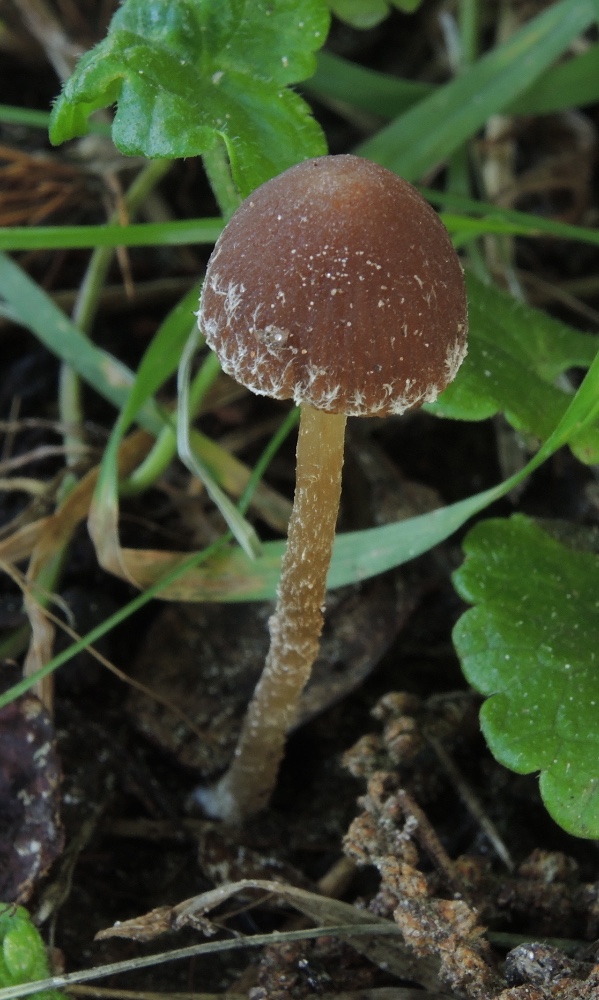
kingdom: Fungi
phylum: Basidiomycota
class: Agaricomycetes
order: Agaricales
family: Psathyrellaceae
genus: Psathyrella
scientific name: Psathyrella effibulata
